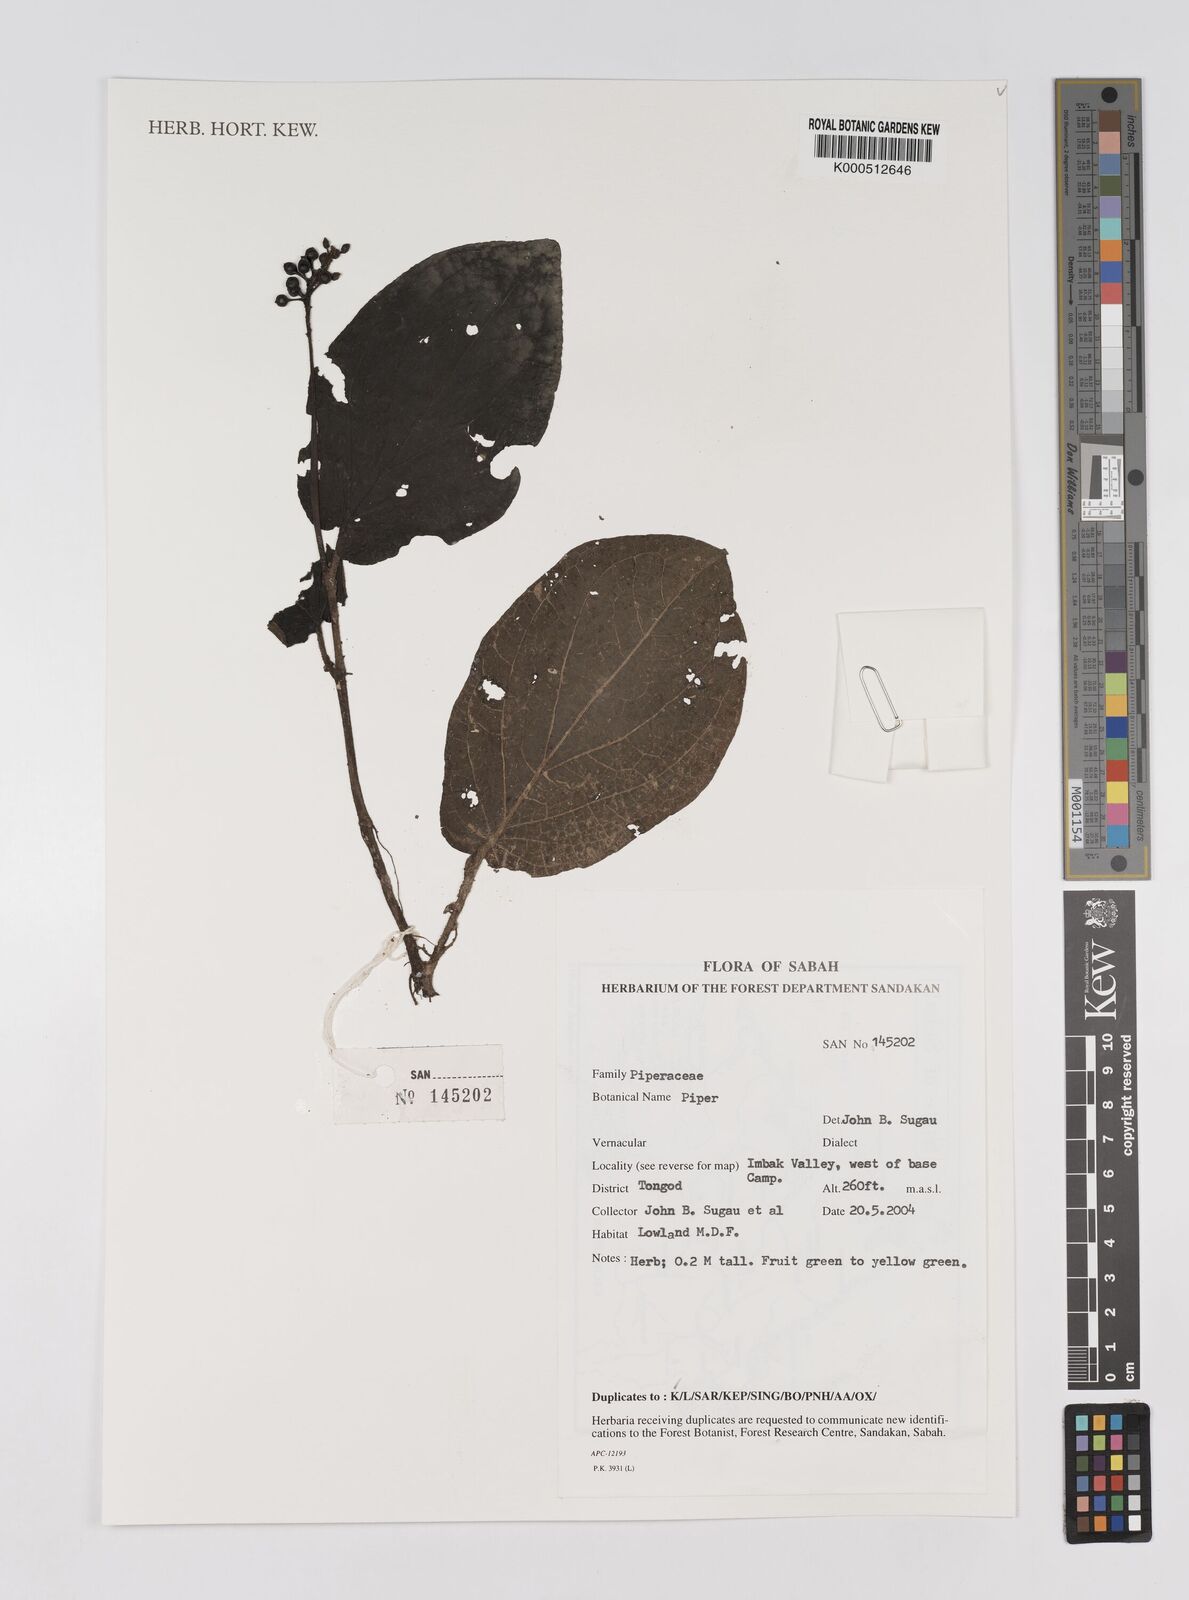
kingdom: Plantae
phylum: Tracheophyta
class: Magnoliopsida
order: Piperales
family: Piperaceae
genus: Piper
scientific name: Piper
